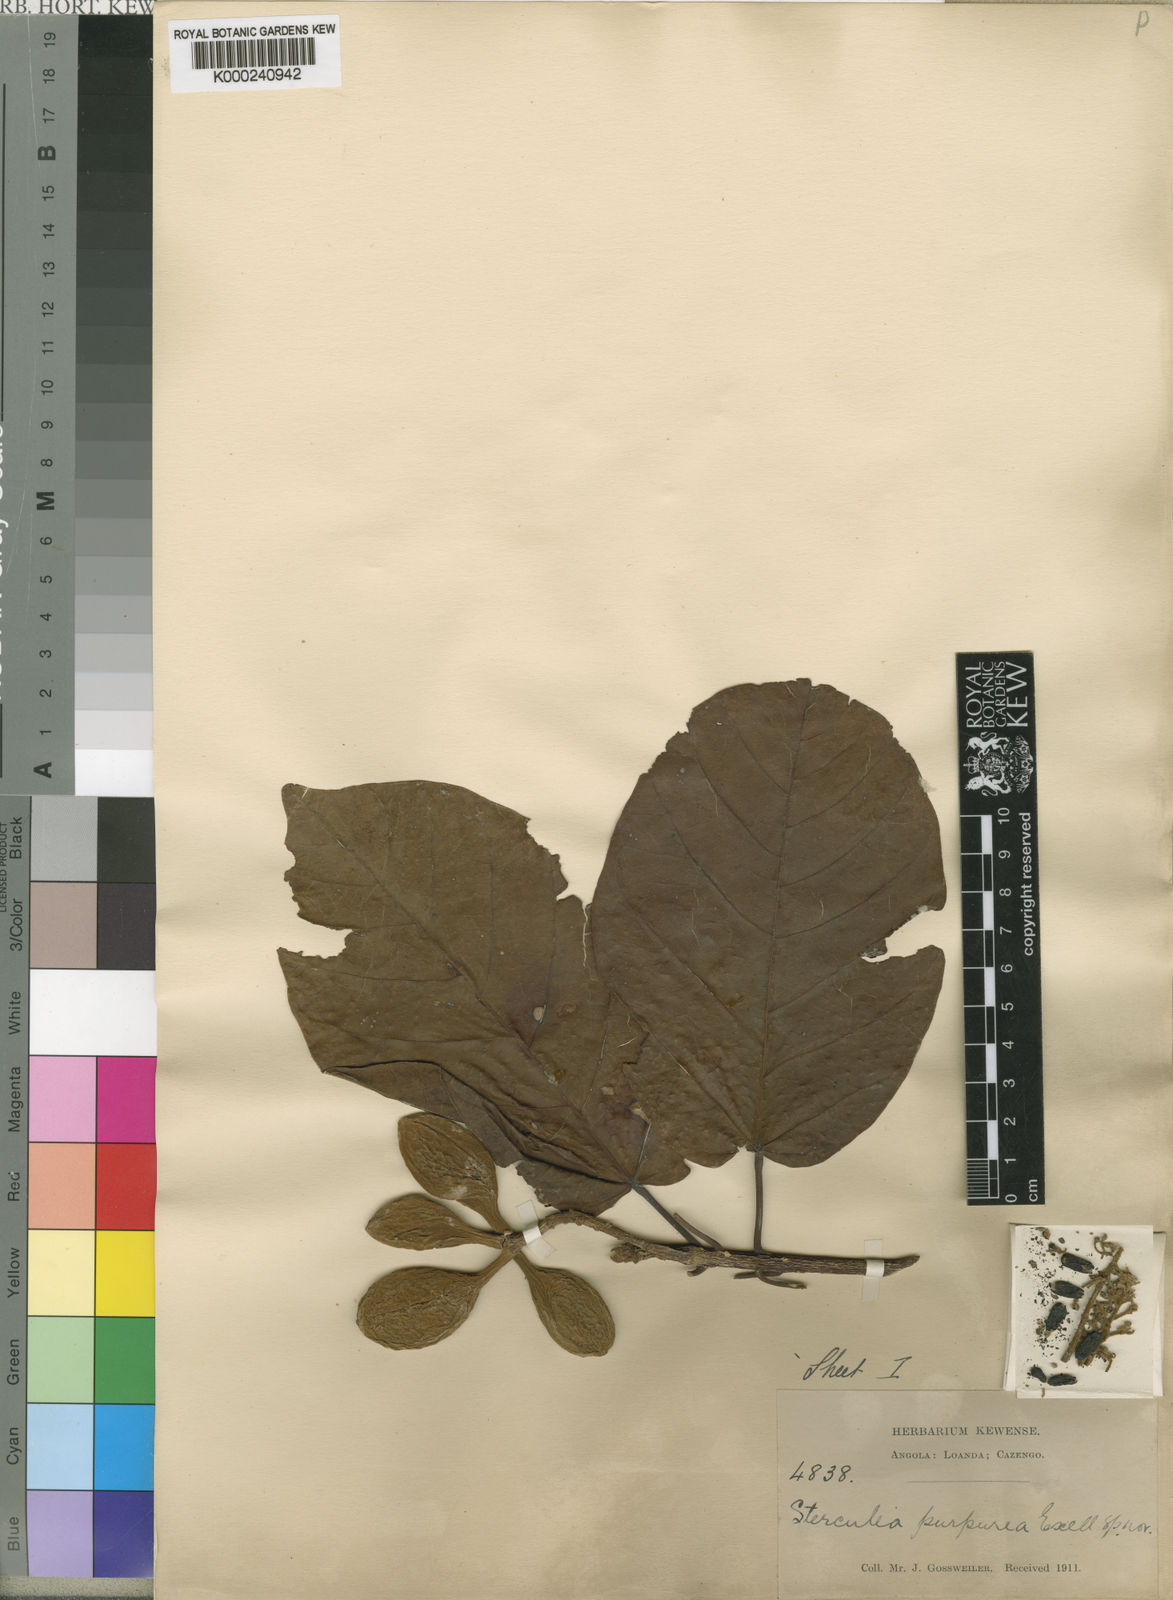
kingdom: Plantae
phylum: Tracheophyta
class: Magnoliopsida
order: Malvales
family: Malvaceae
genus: Sterculia
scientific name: Sterculia dawei
